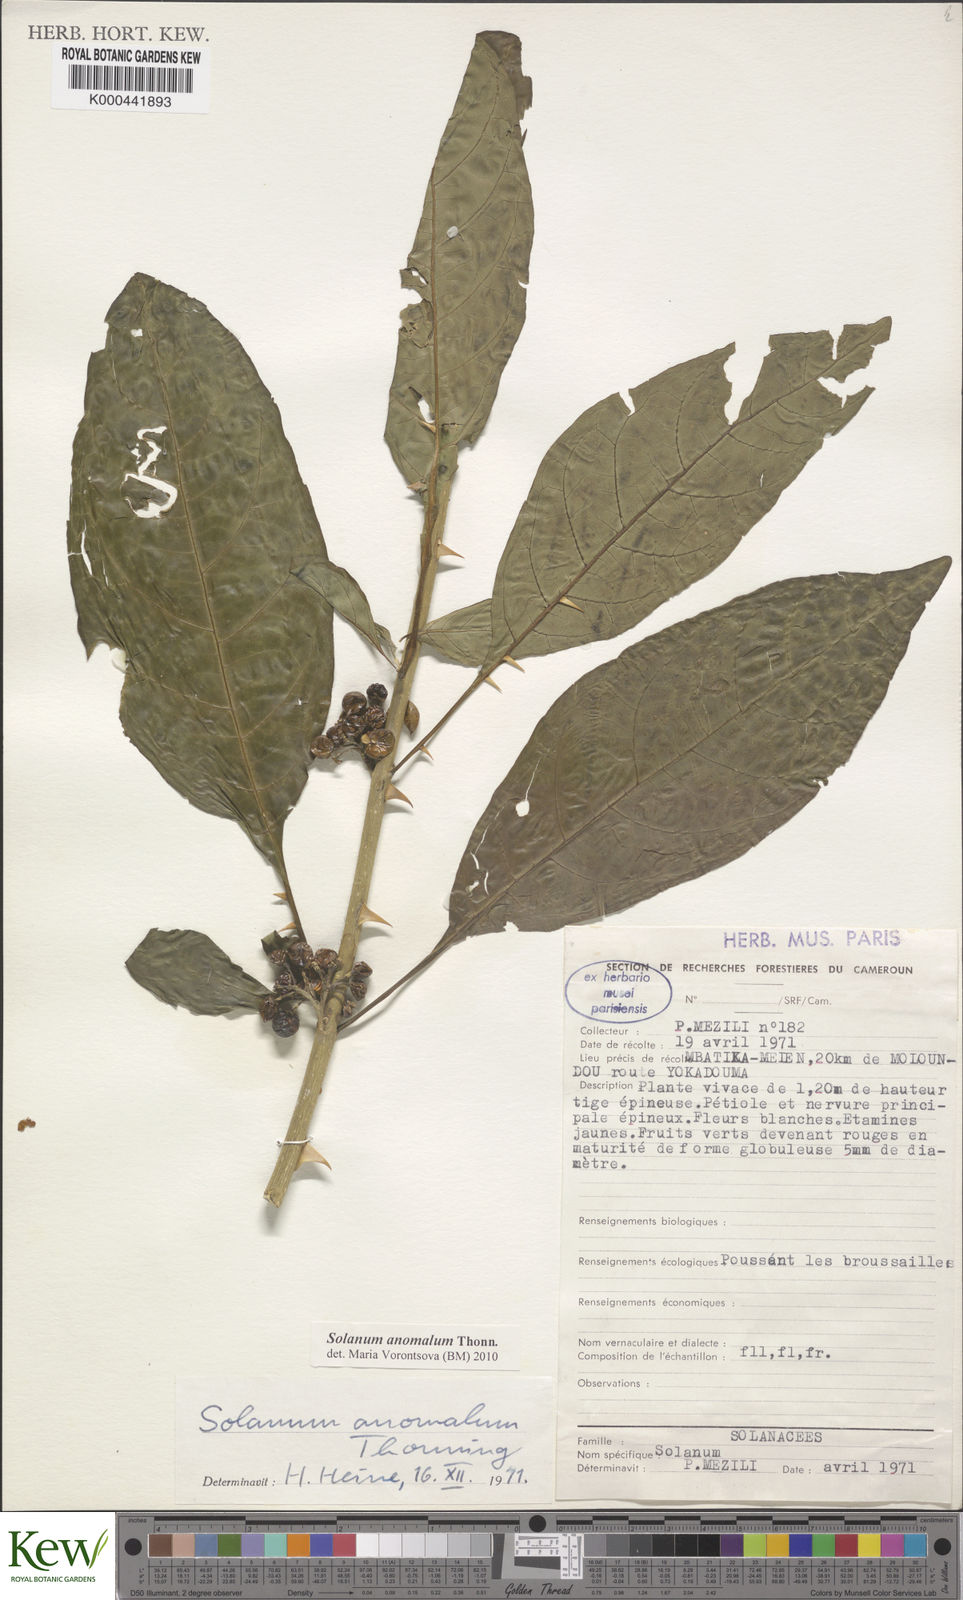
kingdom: Plantae
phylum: Tracheophyta
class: Magnoliopsida
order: Solanales
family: Solanaceae
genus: Solanum
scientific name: Solanum anomalum
